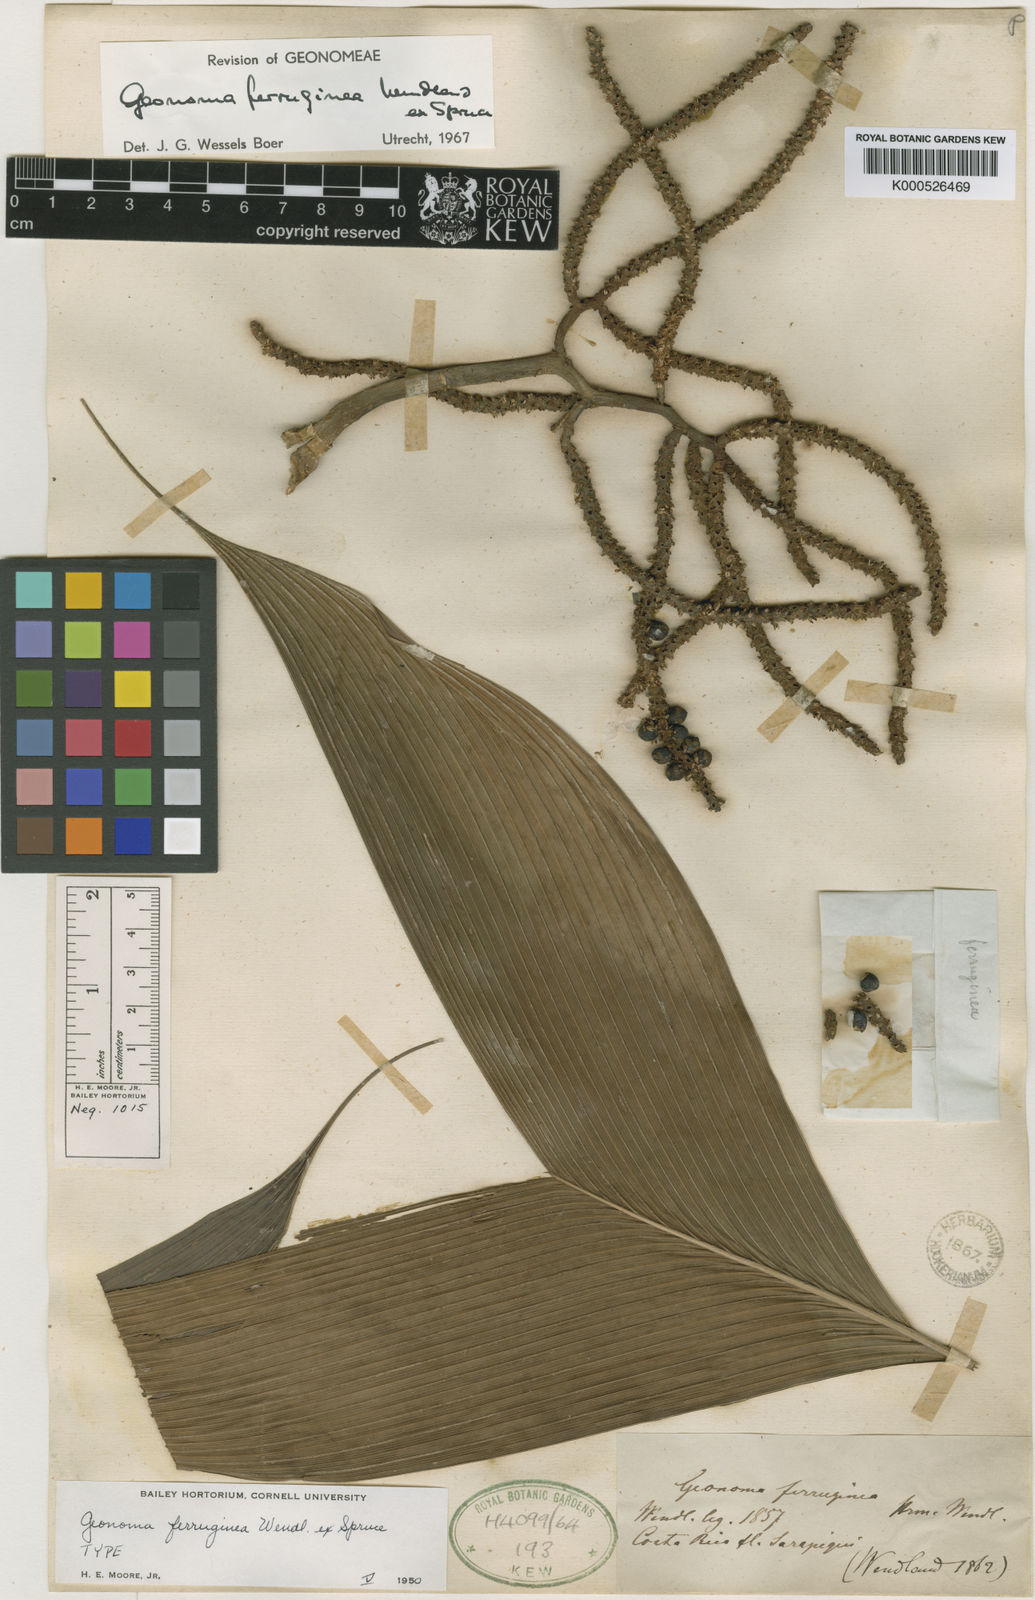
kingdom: Plantae
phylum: Tracheophyta
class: Liliopsida
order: Arecales
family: Arecaceae
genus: Geonoma
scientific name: Geonoma ferruginea
